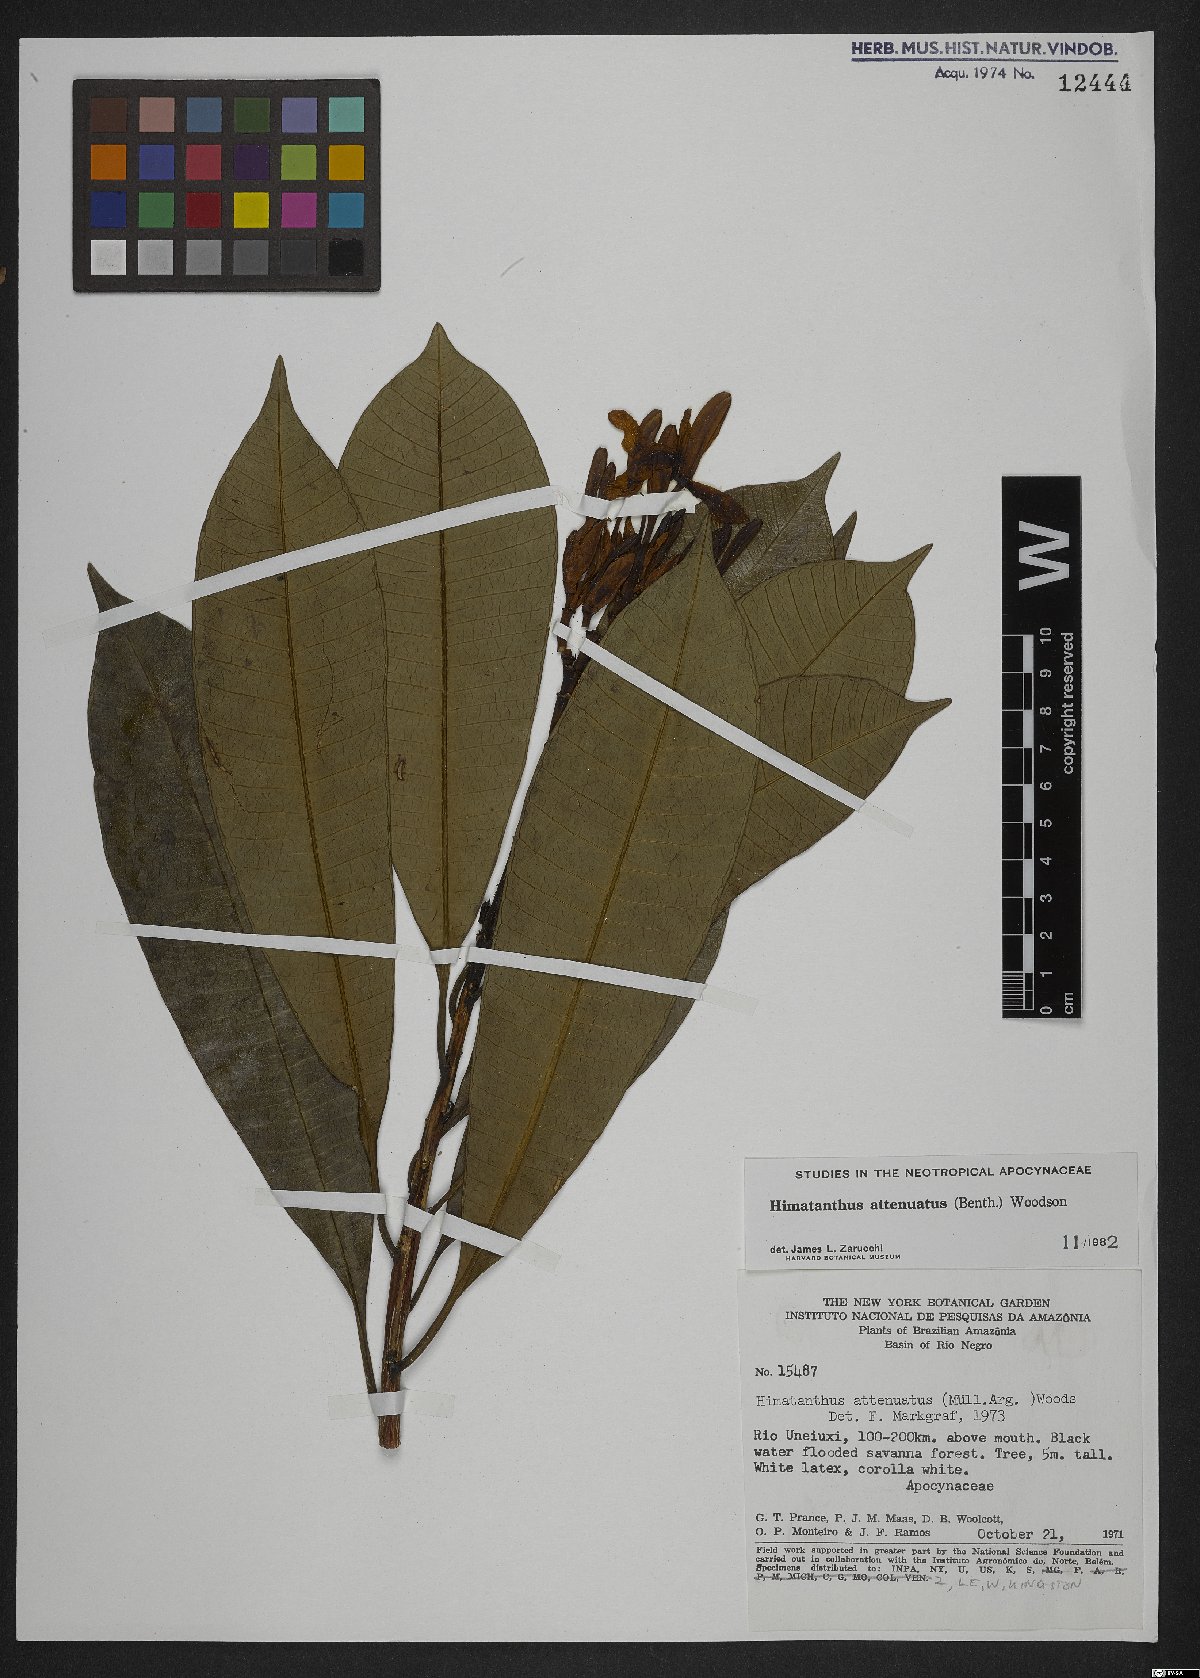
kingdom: Plantae
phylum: Tracheophyta
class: Magnoliopsida
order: Gentianales
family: Apocynaceae
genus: Himatanthus
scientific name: Himatanthus attenuatus
